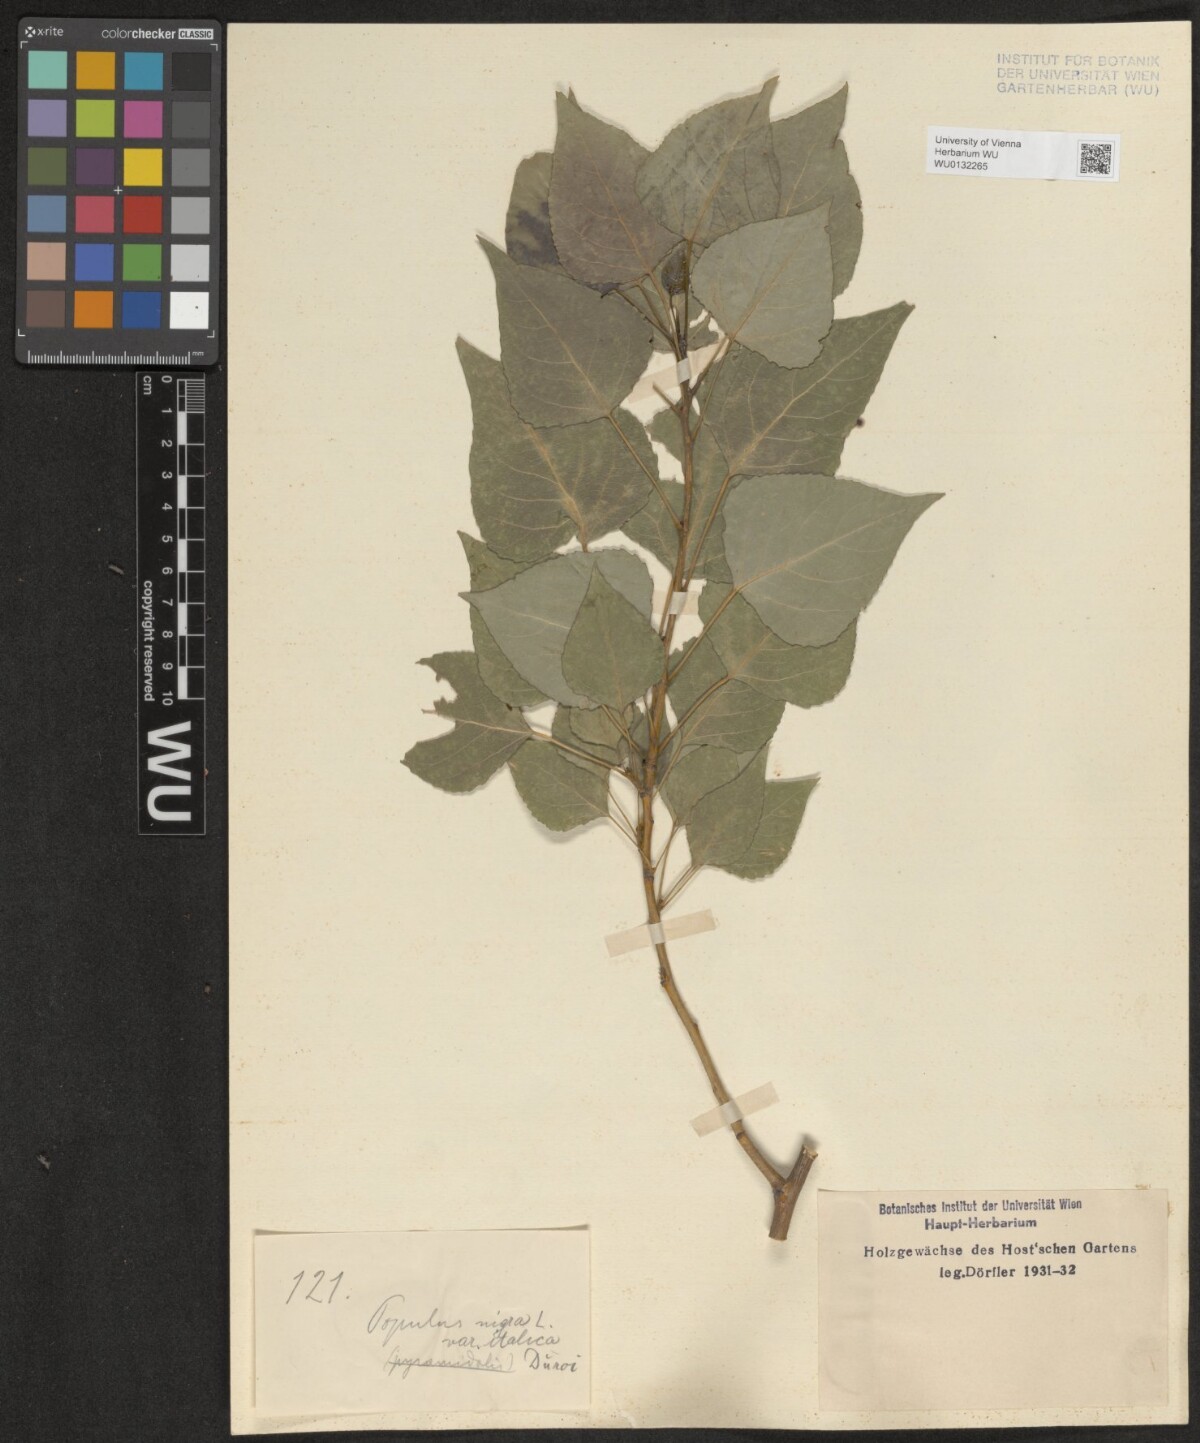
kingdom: Plantae
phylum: Tracheophyta
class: Magnoliopsida
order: Malpighiales
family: Salicaceae
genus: Populus
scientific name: Populus nigra
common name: Black poplar
